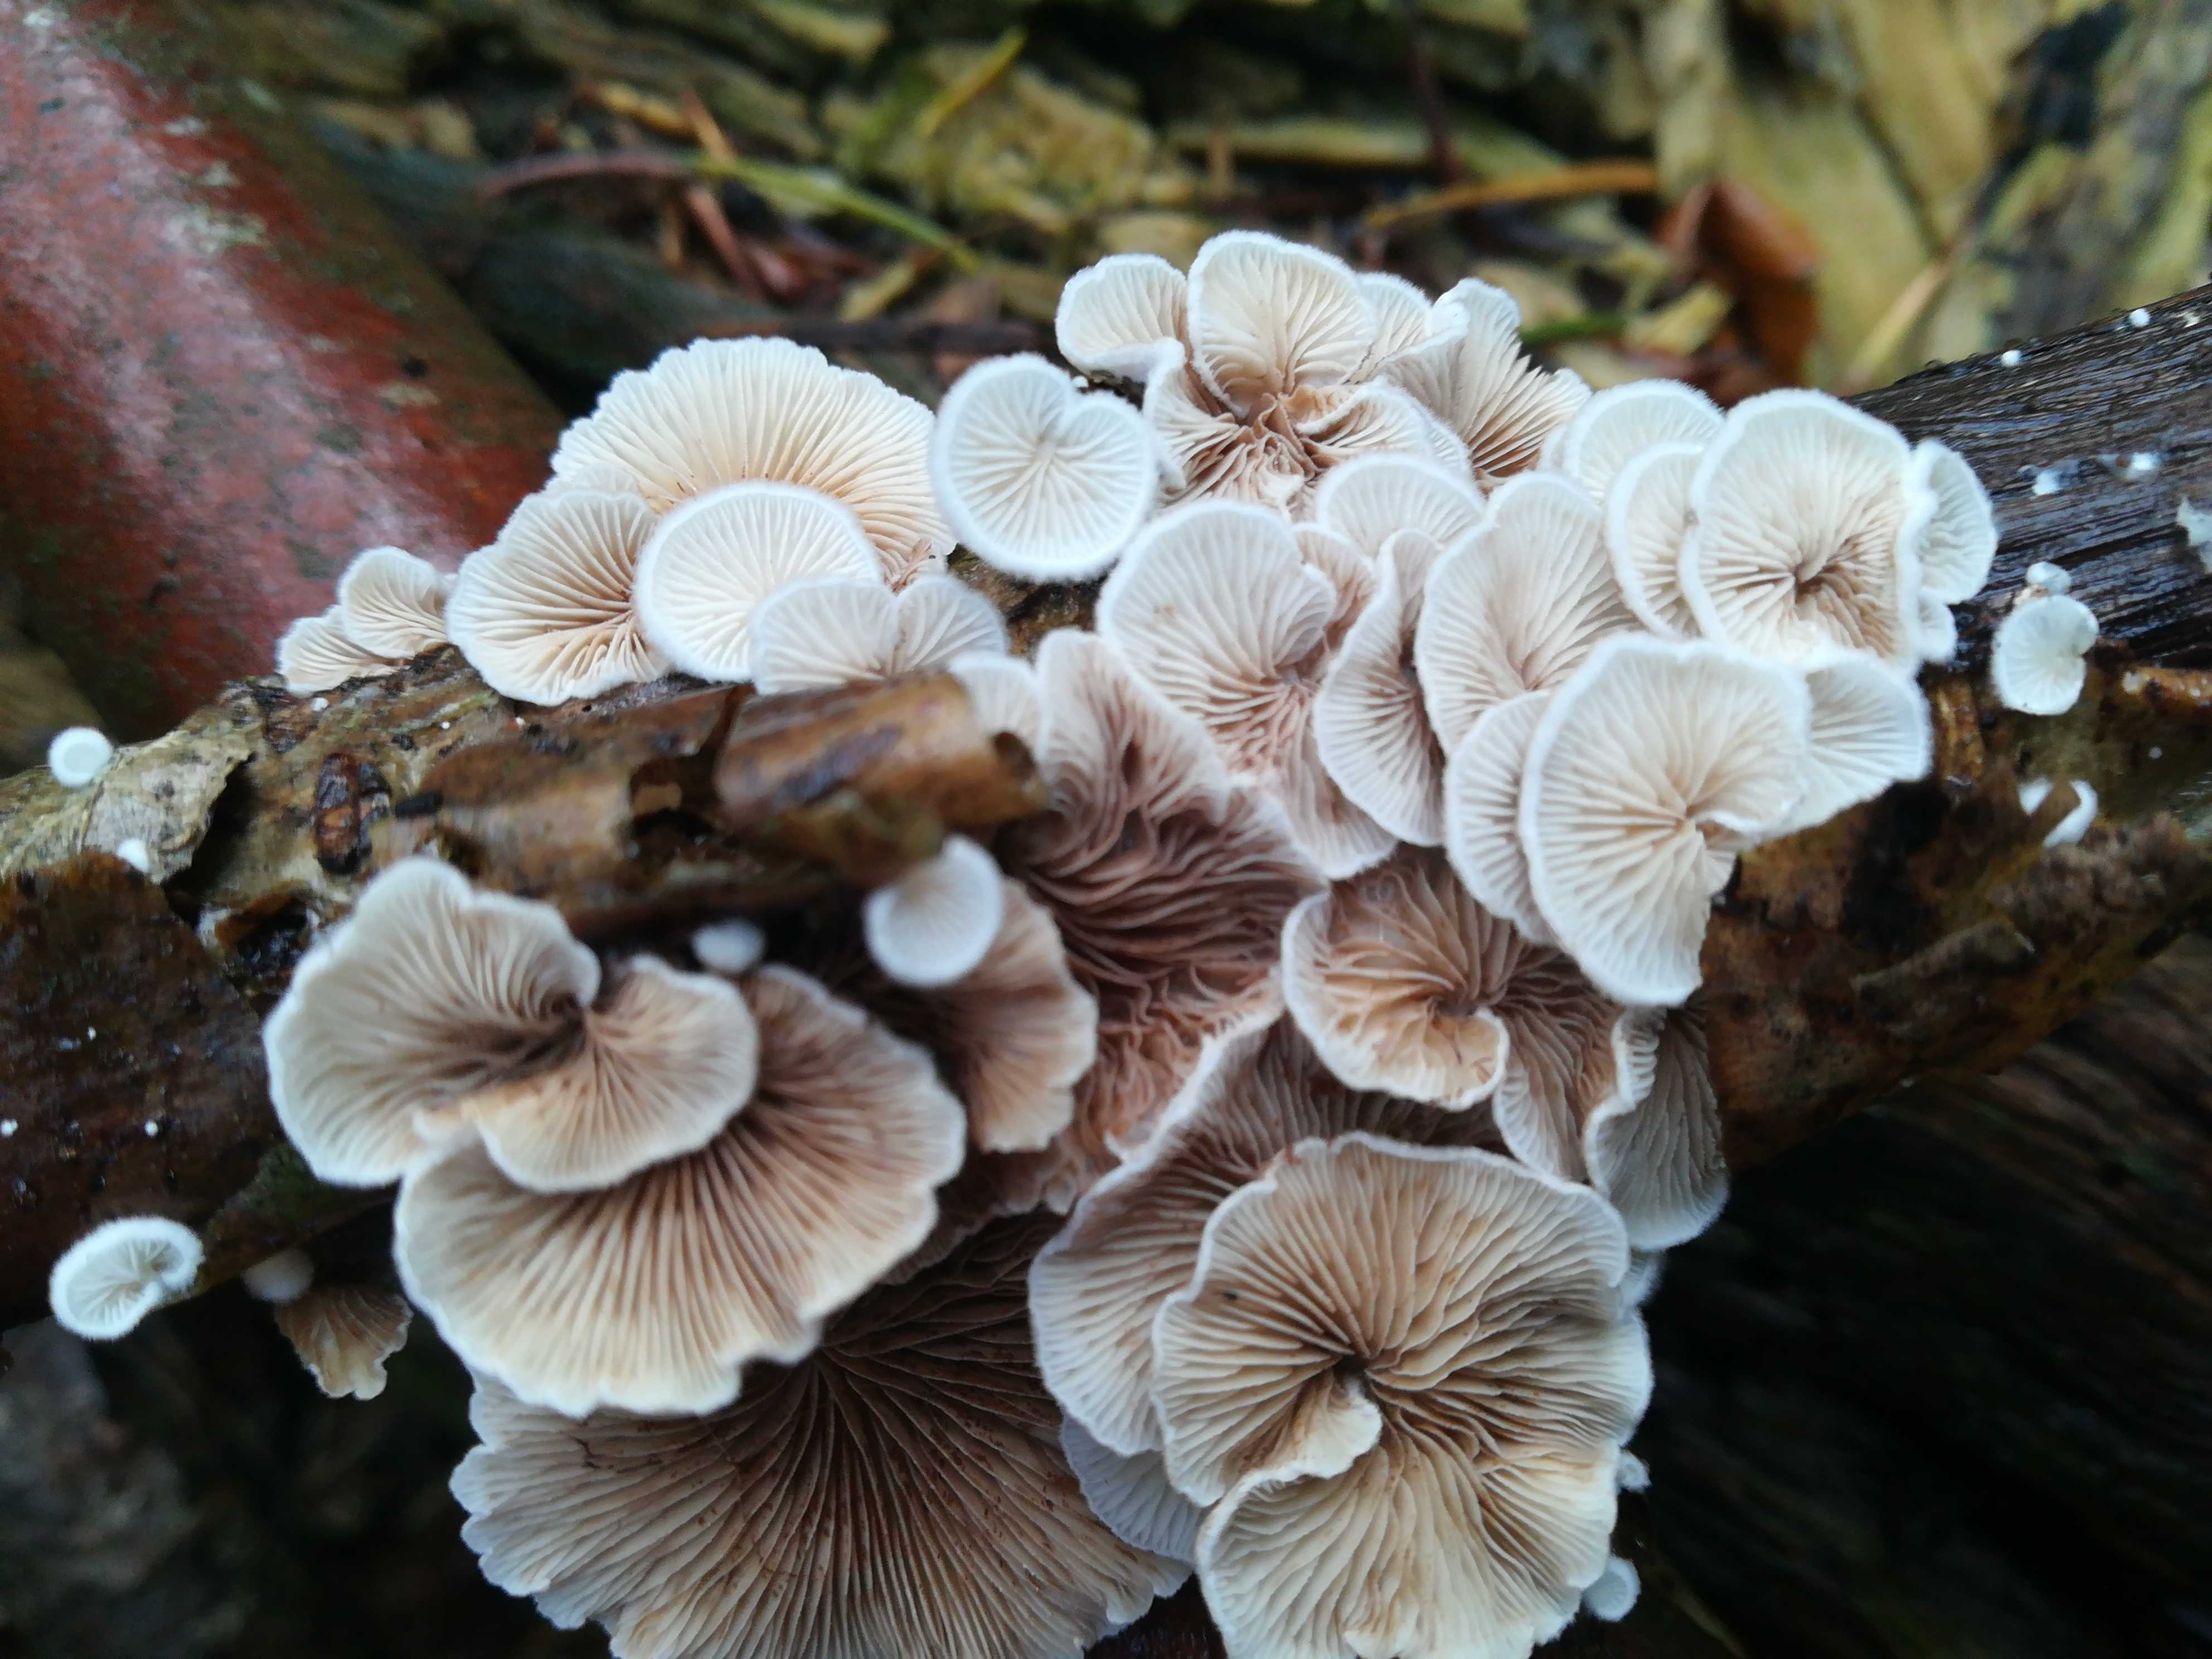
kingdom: Fungi
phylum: Basidiomycota
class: Agaricomycetes
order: Agaricales
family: Crepidotaceae
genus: Crepidotus
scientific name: Crepidotus
